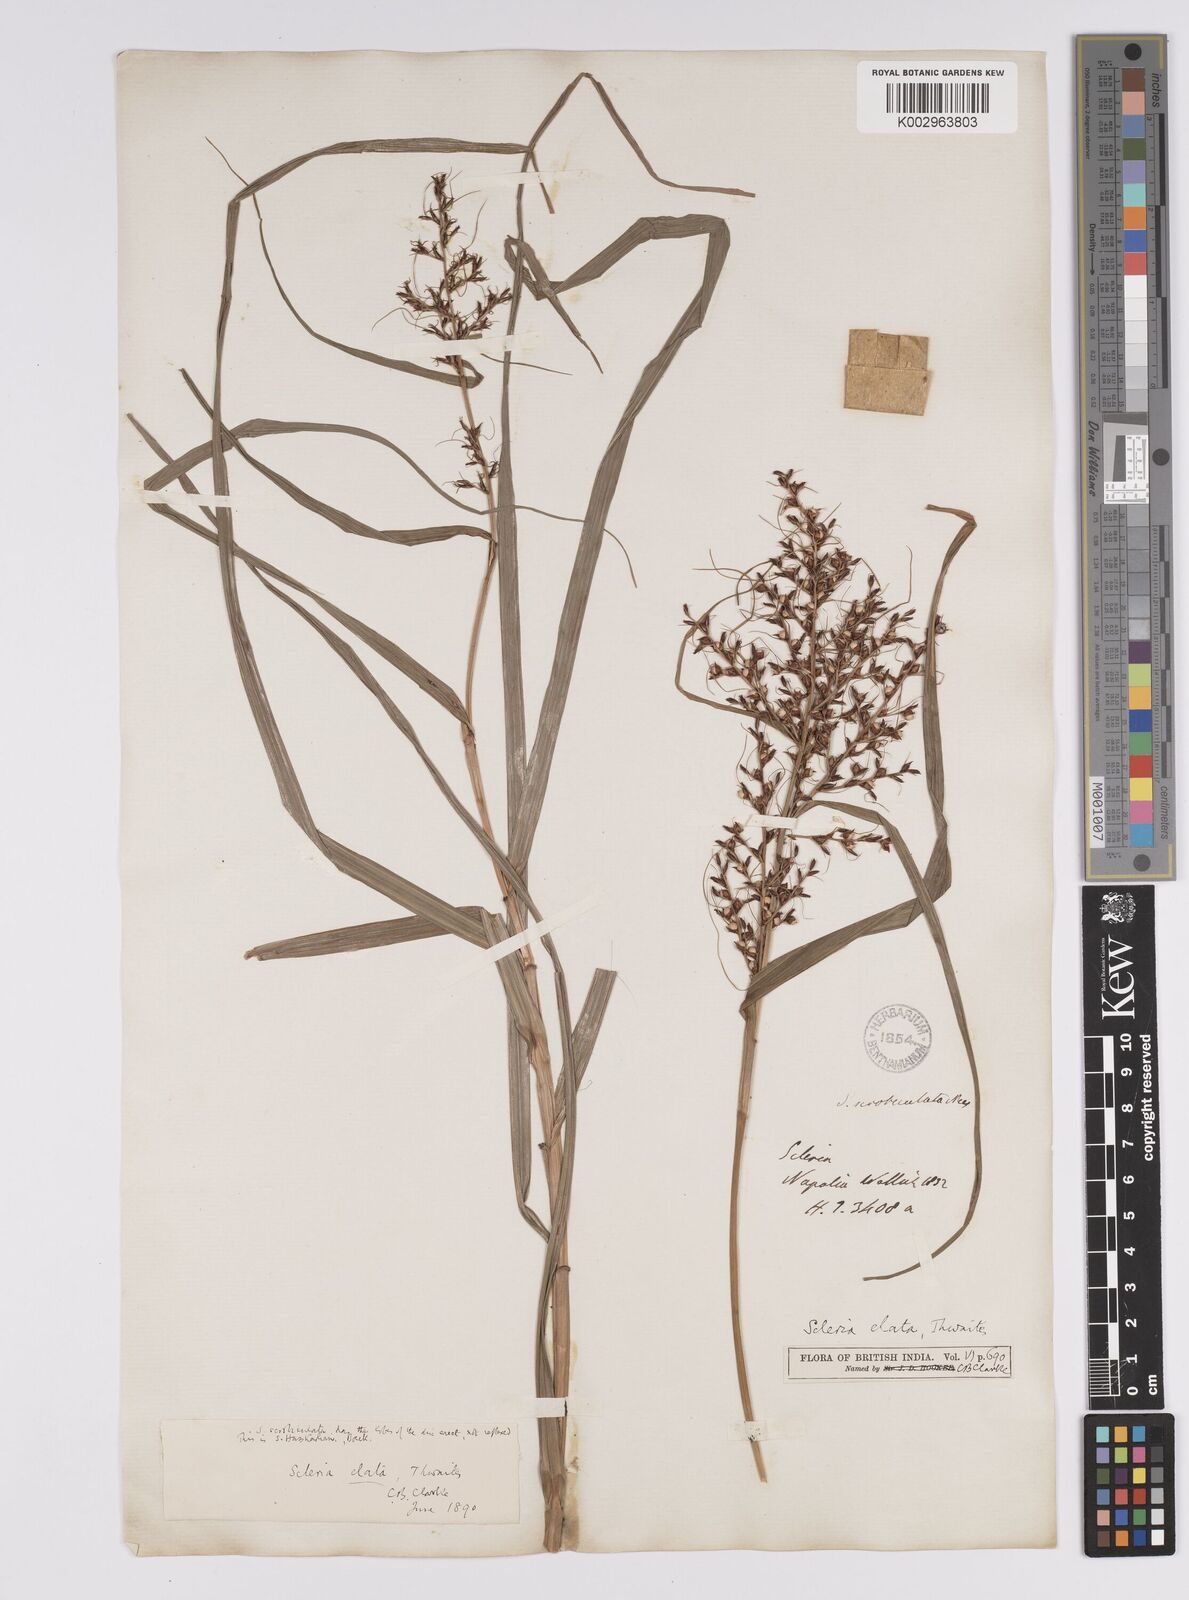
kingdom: Plantae
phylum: Tracheophyta
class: Liliopsida
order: Poales
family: Cyperaceae
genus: Scleria
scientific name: Scleria terrestris
